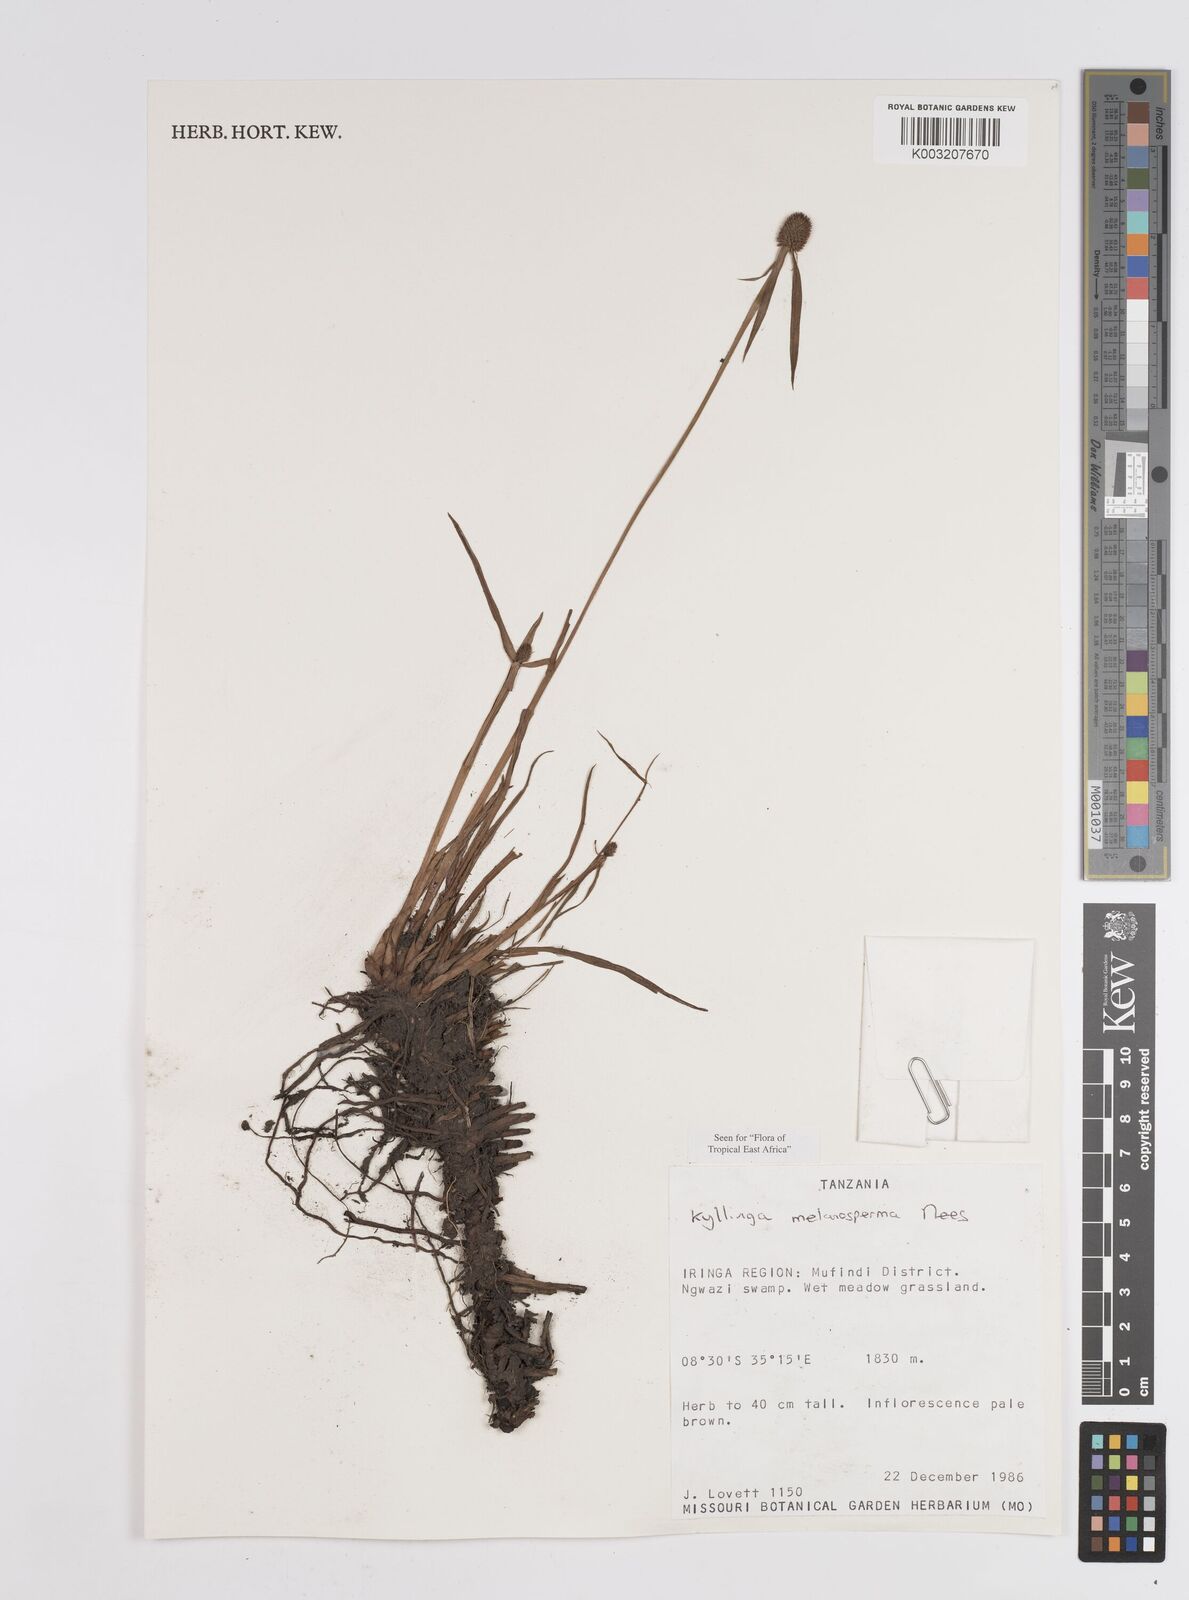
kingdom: Plantae
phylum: Tracheophyta
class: Liliopsida
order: Poales
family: Cyperaceae
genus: Cyperus
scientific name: Cyperus melanospermus
